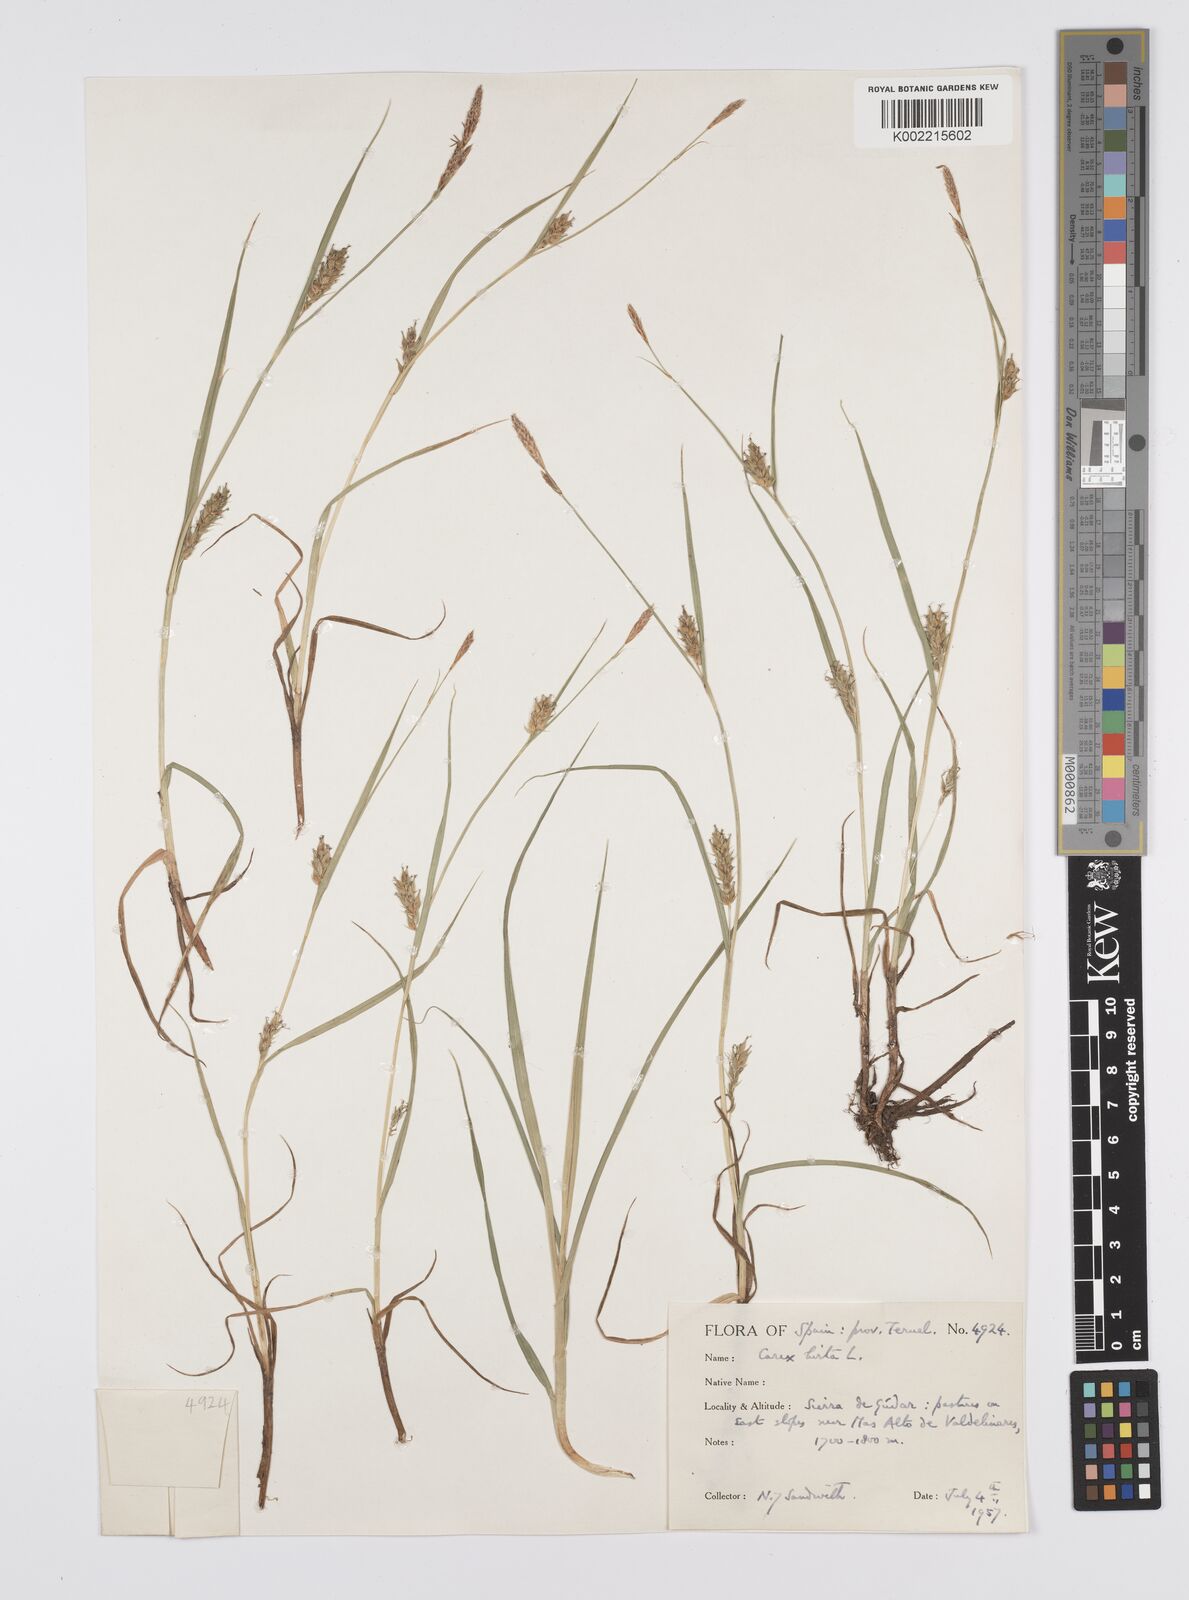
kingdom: Plantae
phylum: Tracheophyta
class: Liliopsida
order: Poales
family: Cyperaceae
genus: Carex
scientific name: Carex hirta
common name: Hairy sedge
